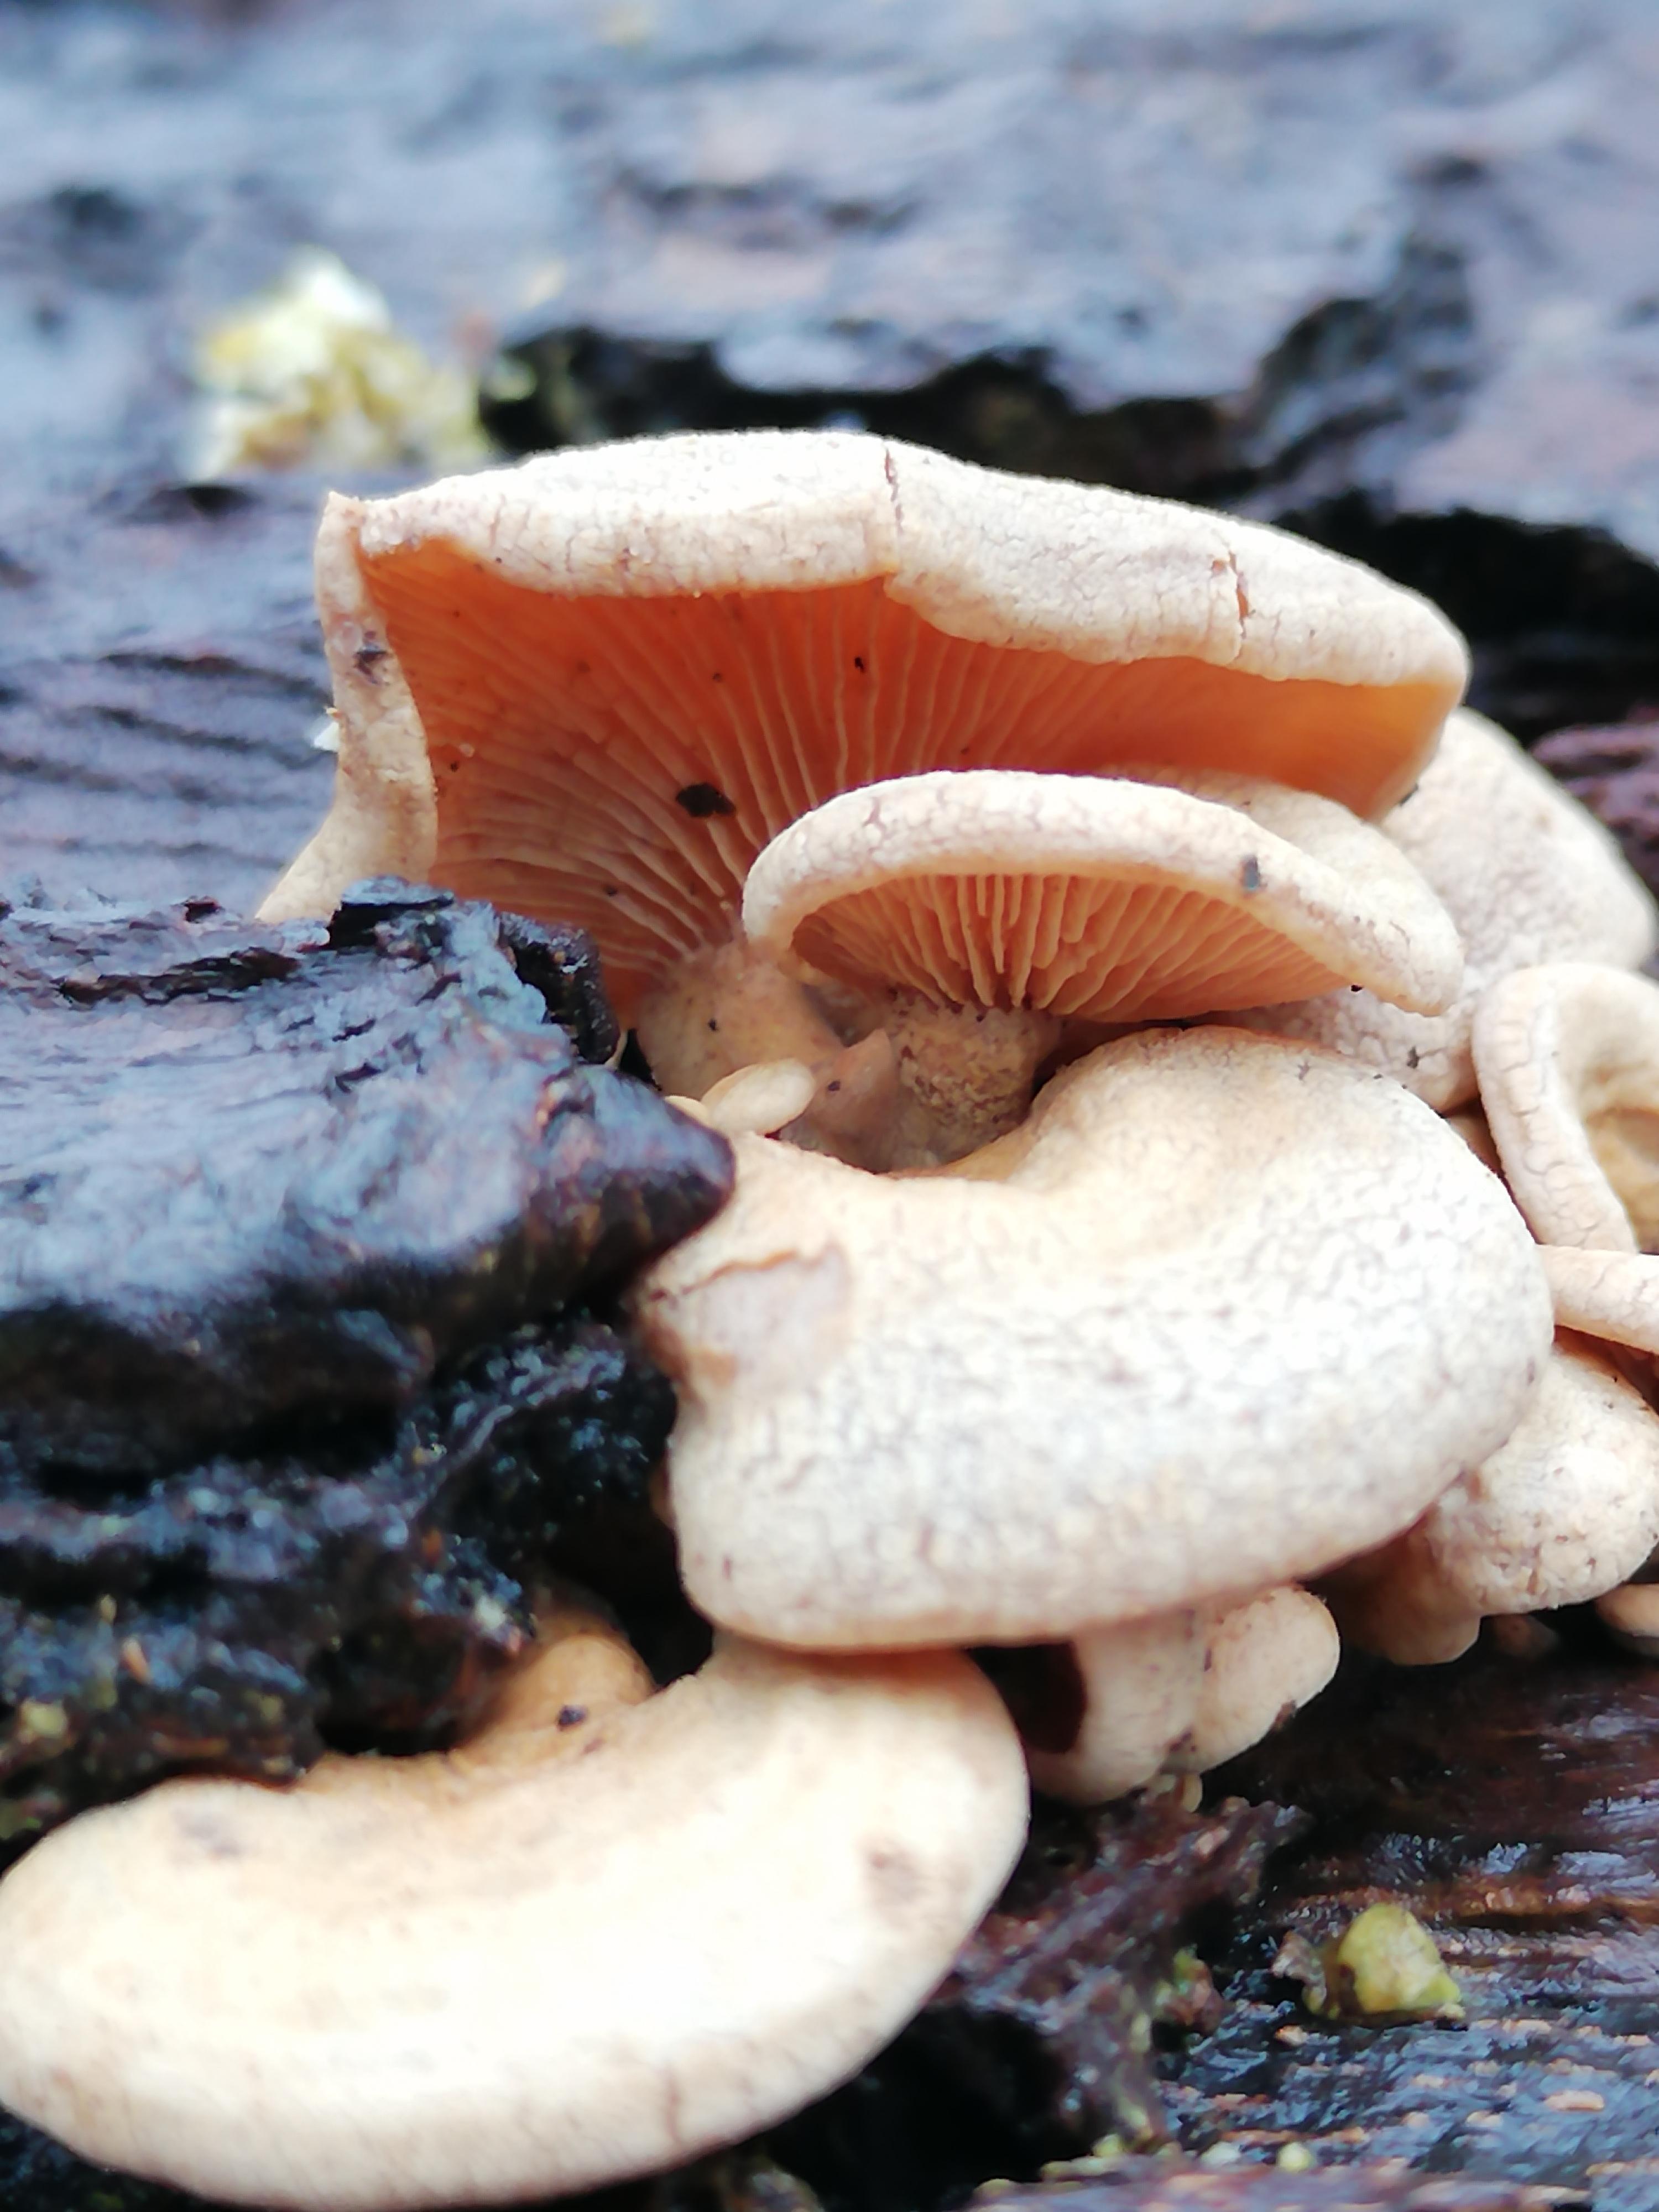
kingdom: Fungi
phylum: Basidiomycota
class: Agaricomycetes
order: Agaricales
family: Mycenaceae
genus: Panellus
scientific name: Panellus stipticus
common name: kliddet epaulethat
